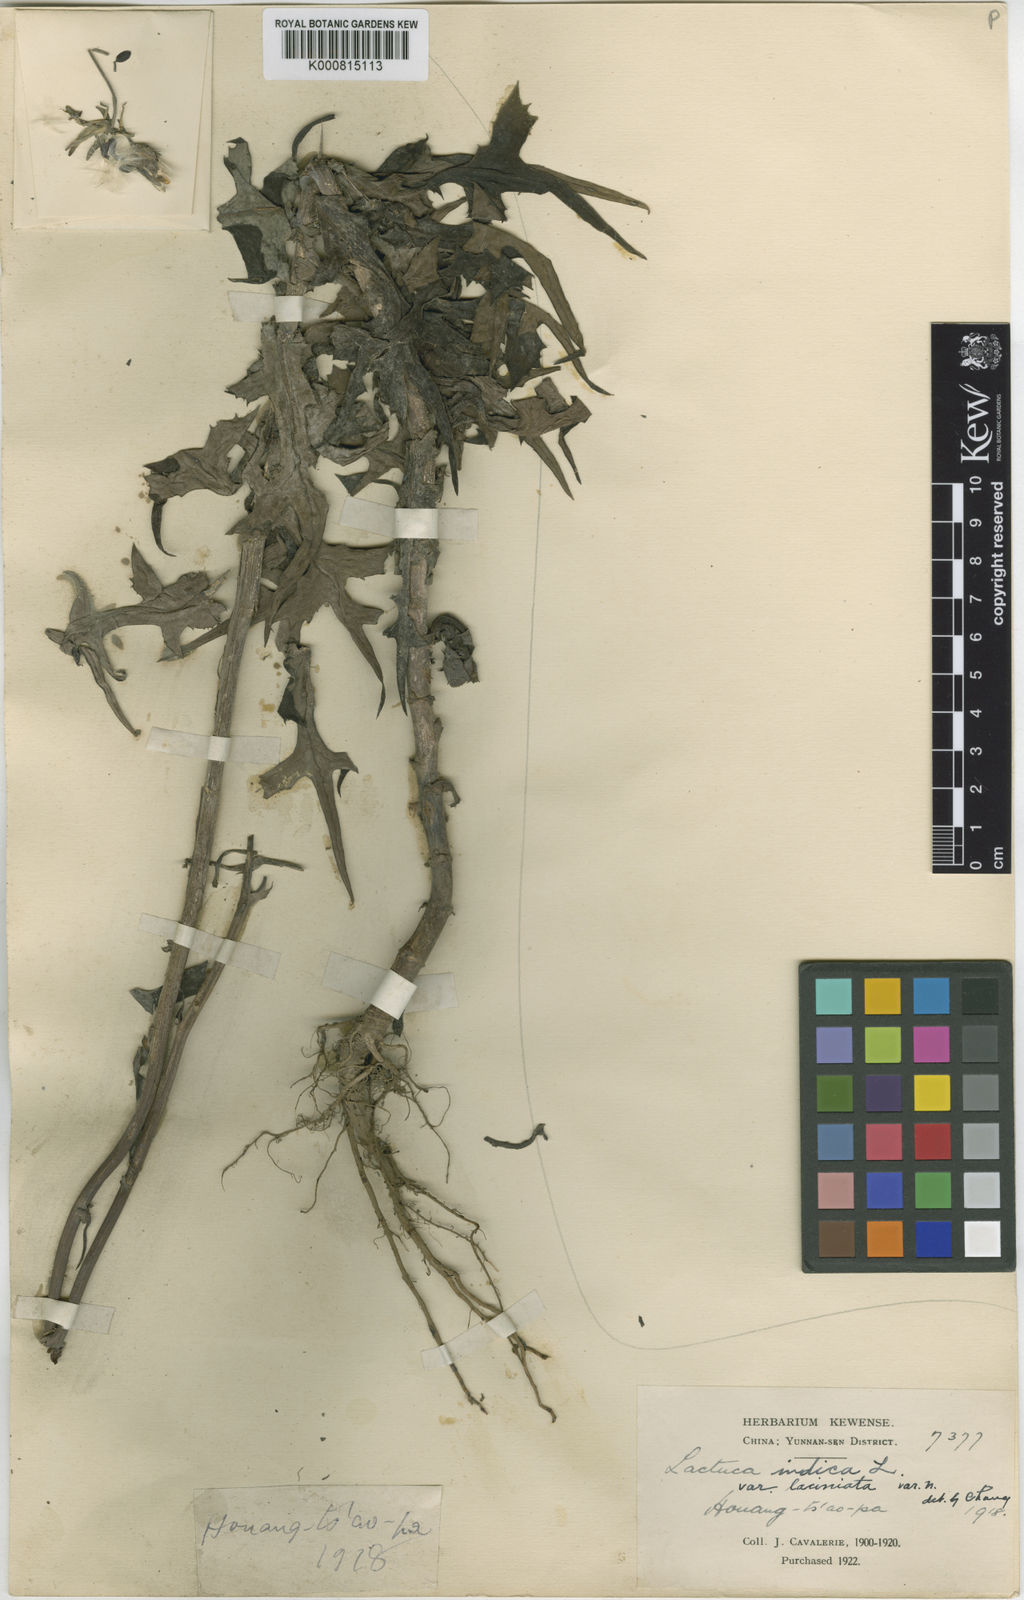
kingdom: Plantae
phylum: Tracheophyta
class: Magnoliopsida
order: Asterales
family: Asteraceae
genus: Lactuca
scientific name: Lactuca indica
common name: Wild lettuce
